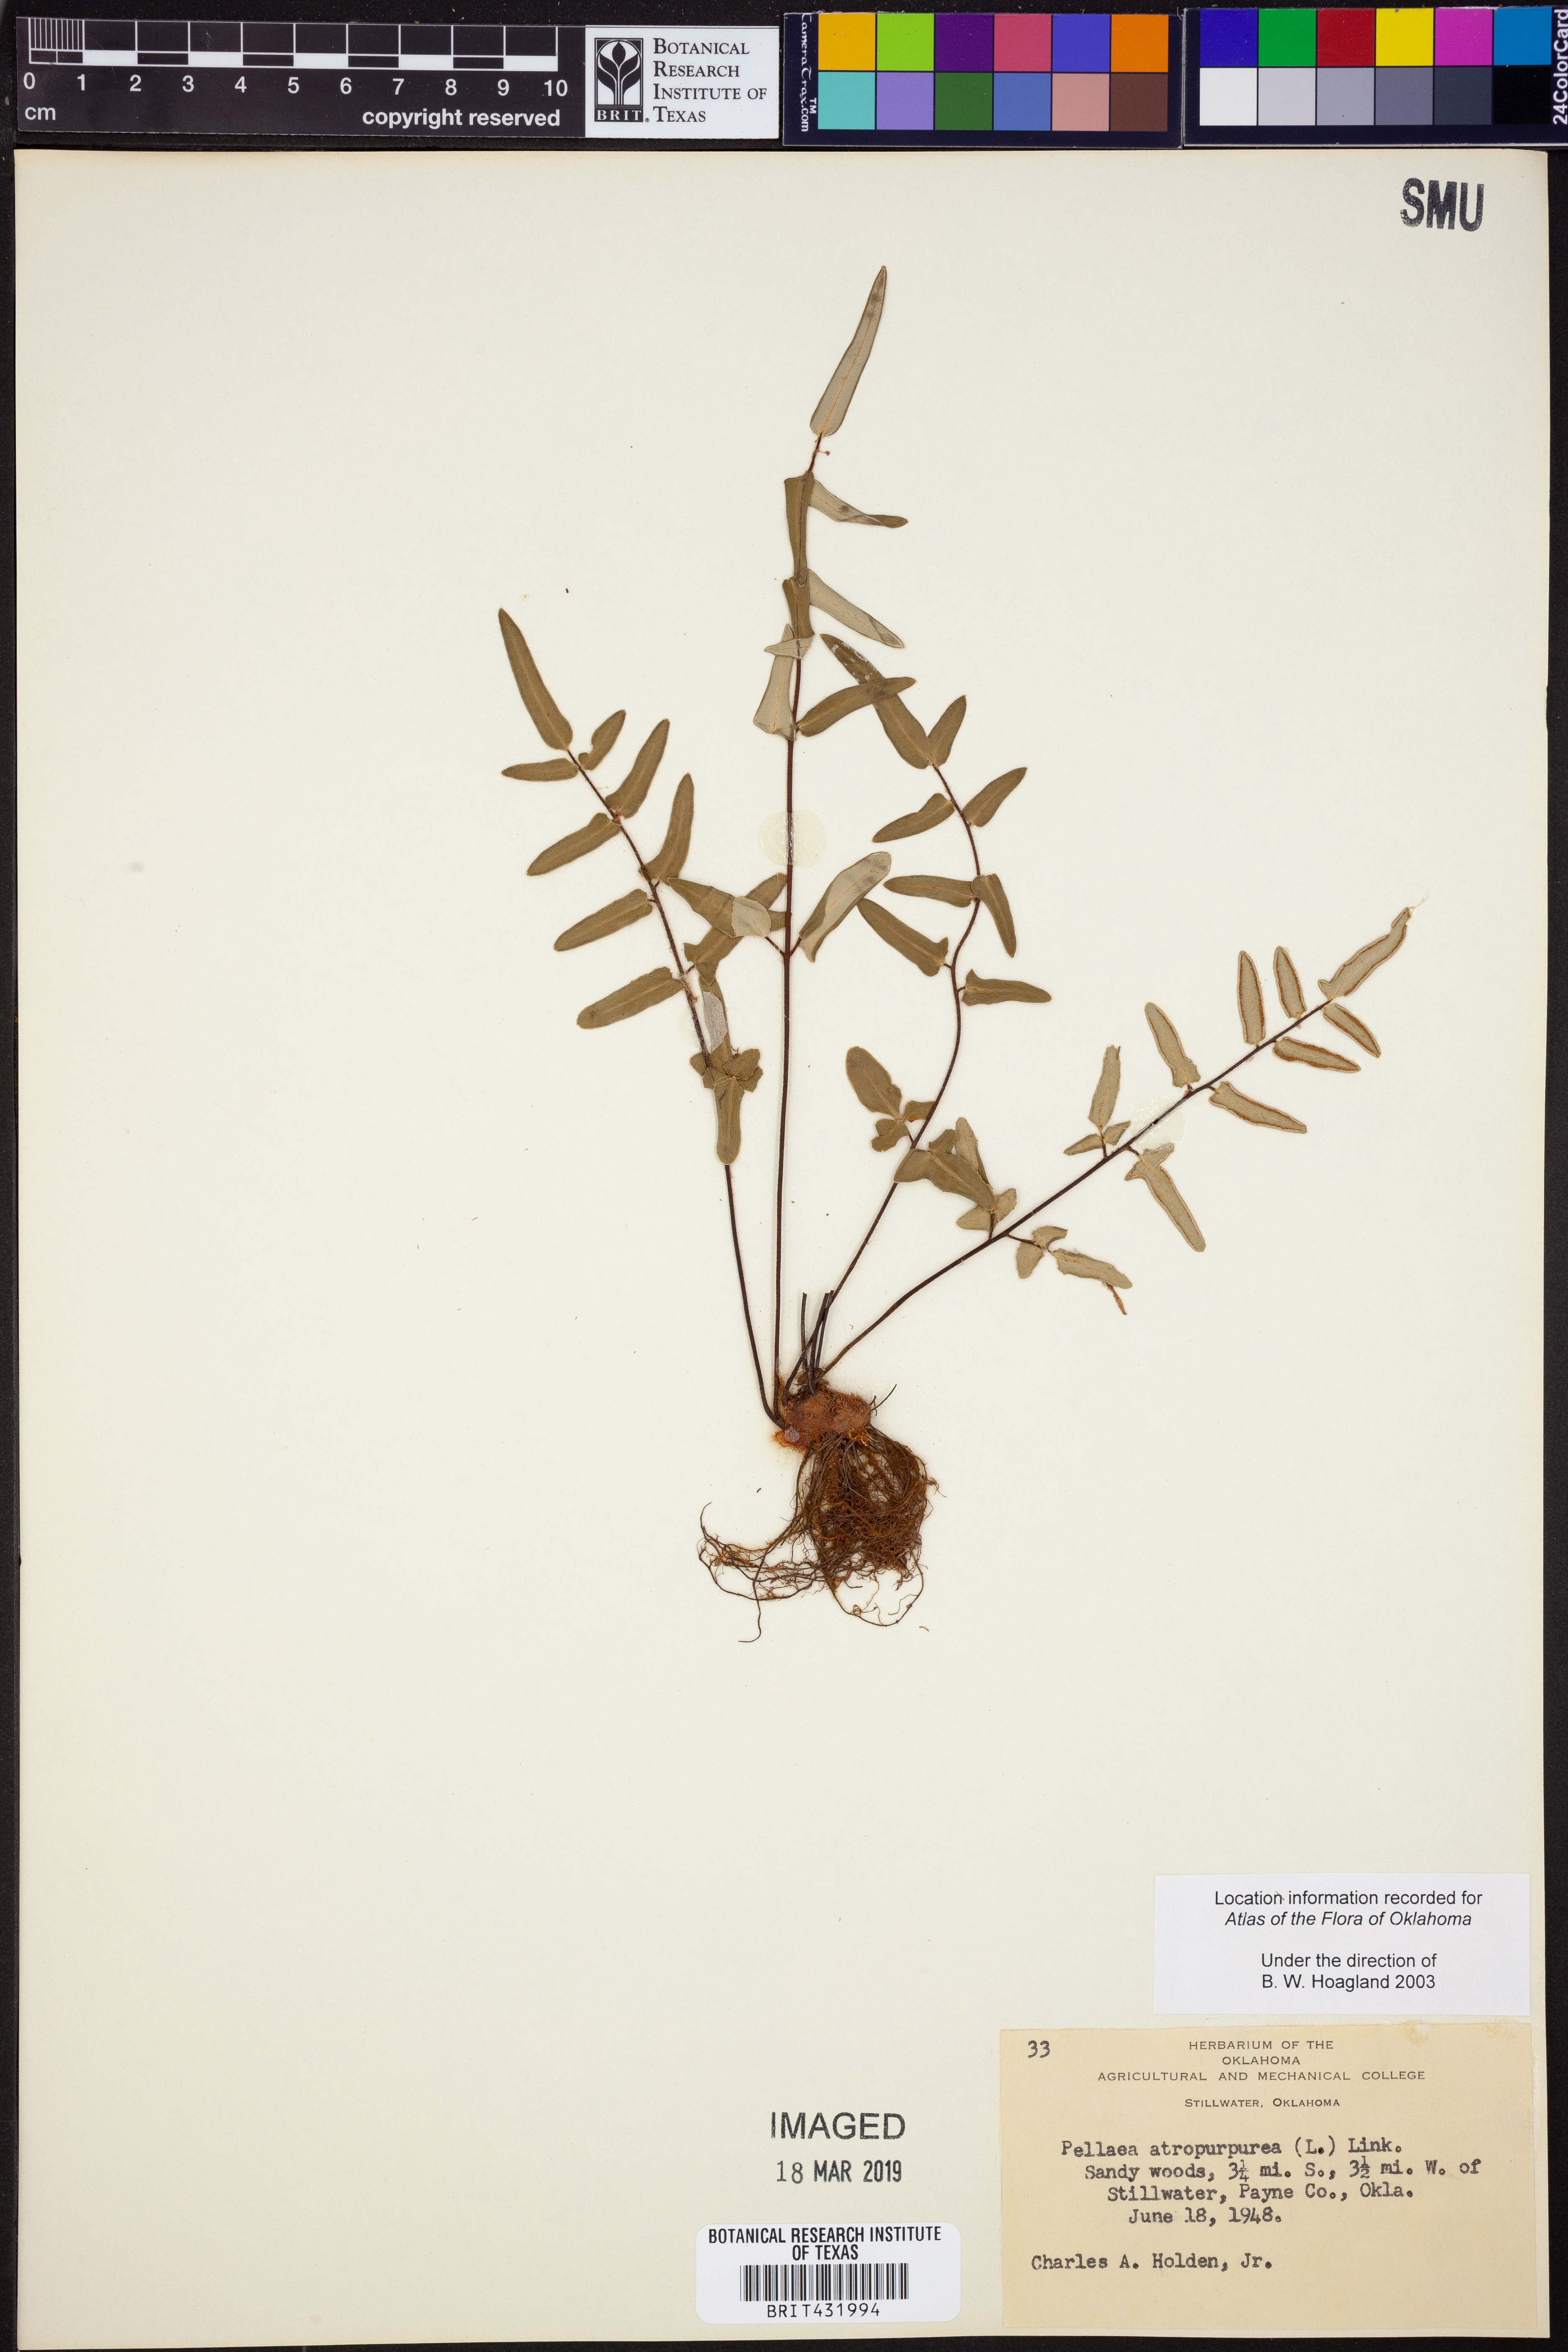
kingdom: Plantae
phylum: Tracheophyta
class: Polypodiopsida
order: Polypodiales
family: Pteridaceae
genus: Pellaea
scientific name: Pellaea atropurpurea
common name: Hairy cliffbrake
